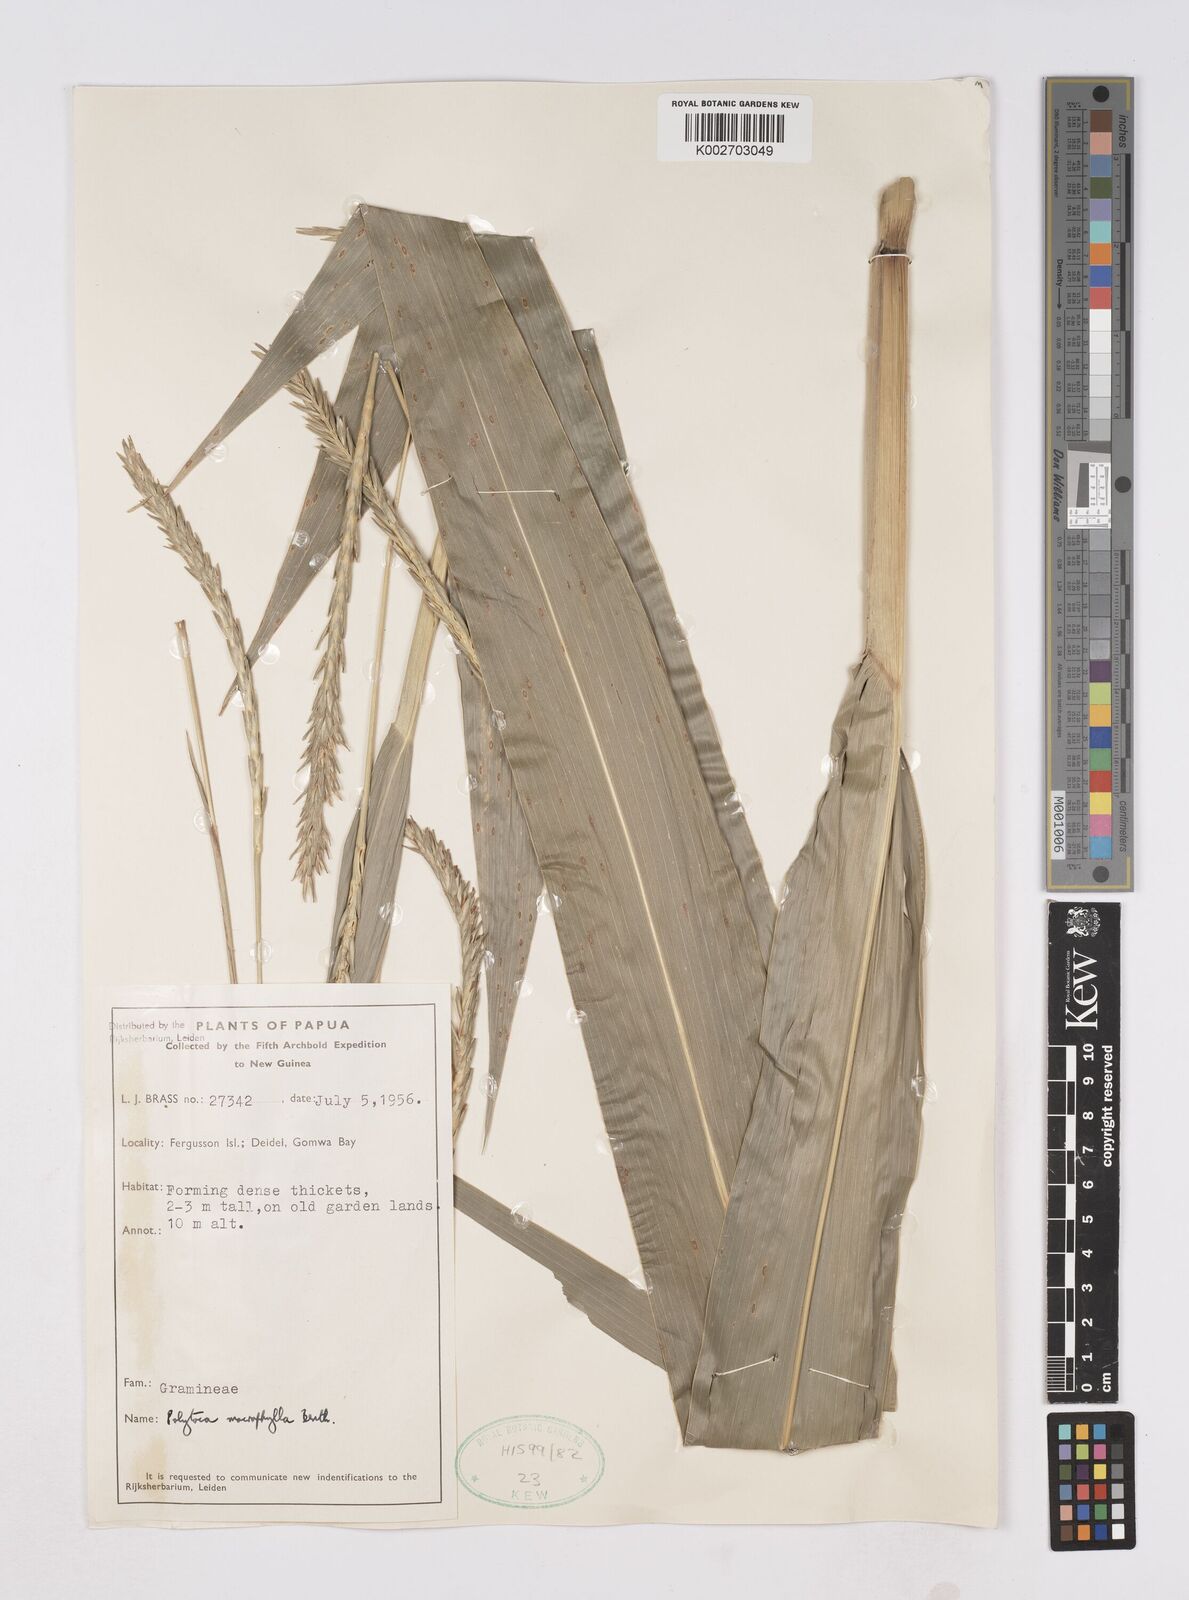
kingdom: Plantae
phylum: Tracheophyta
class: Liliopsida
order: Poales
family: Poaceae
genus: Polytoca
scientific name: Polytoca macrophylla
